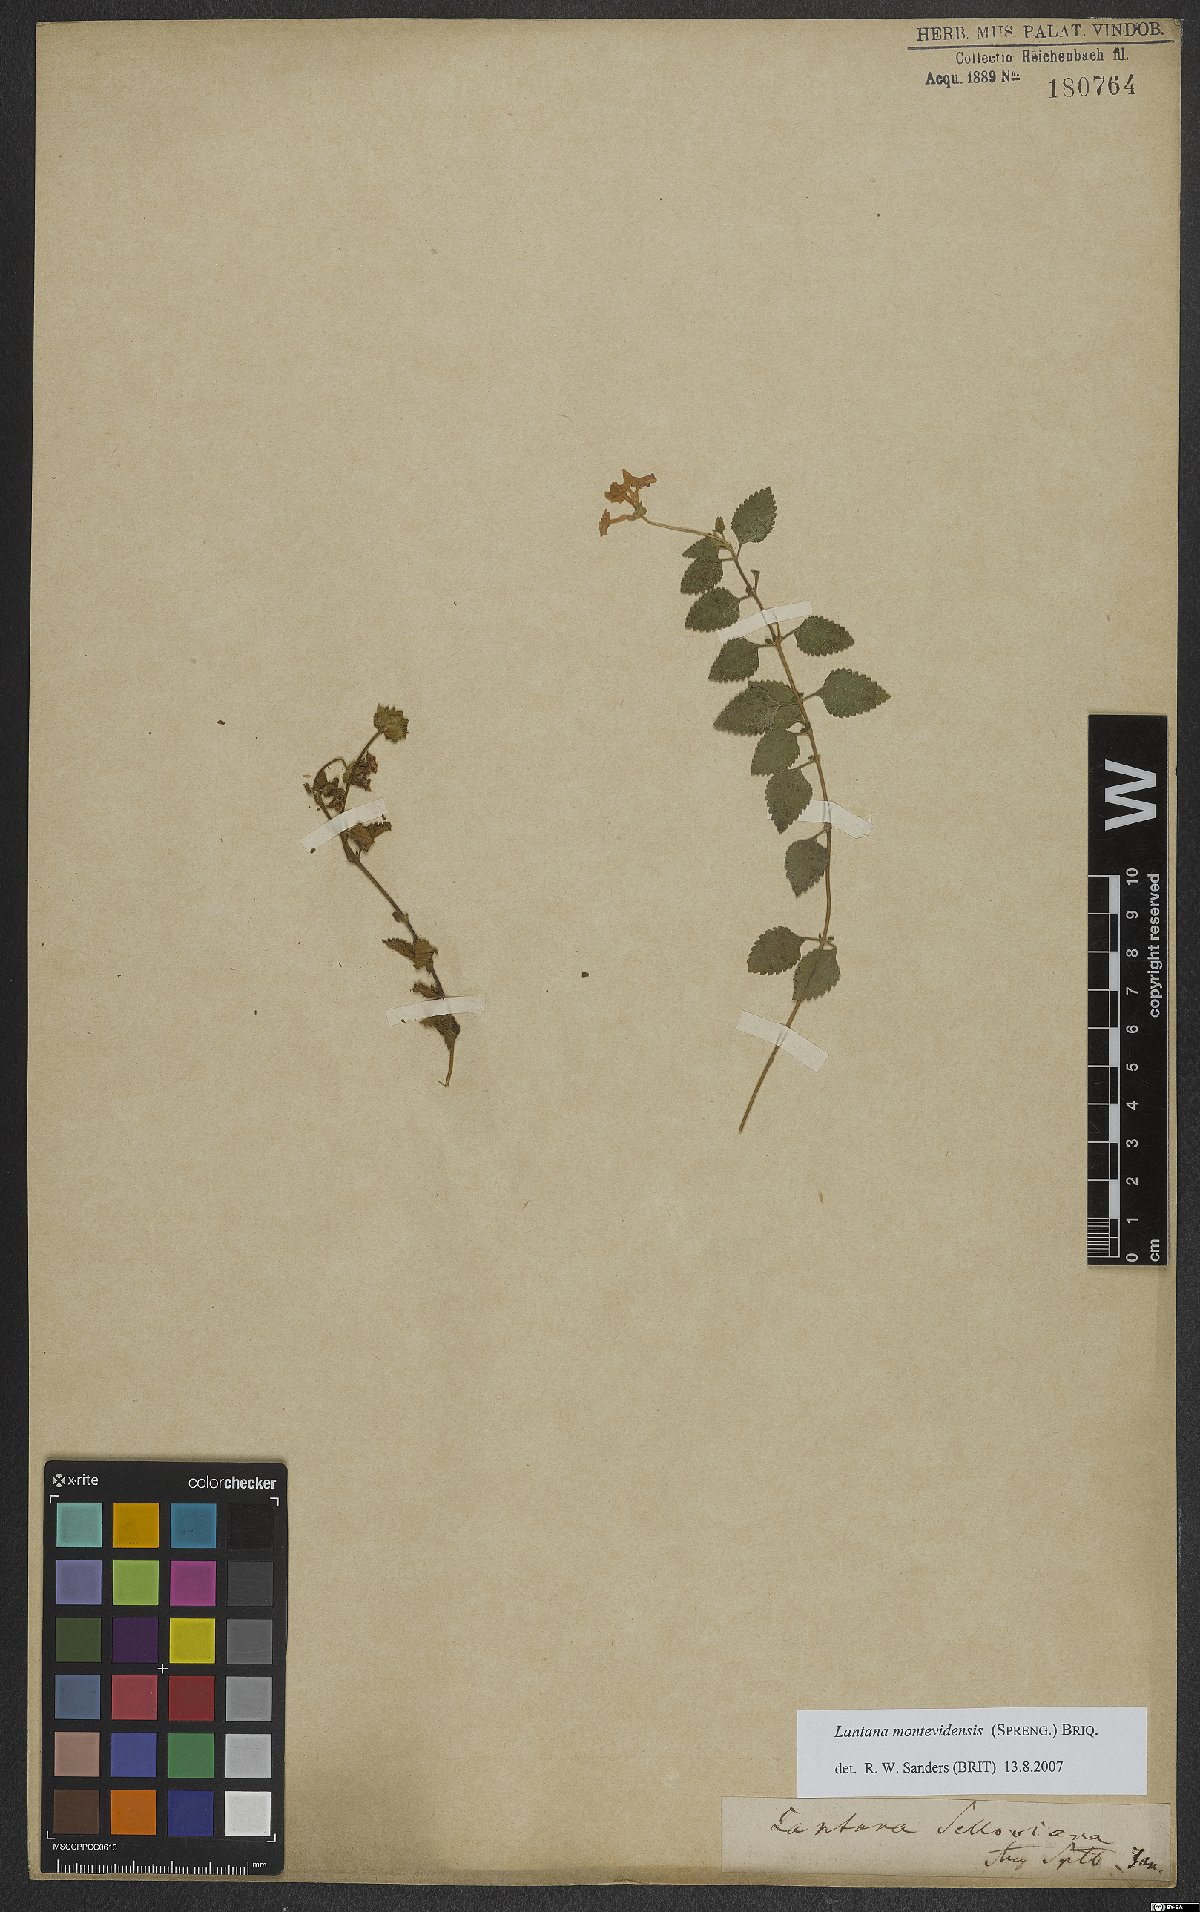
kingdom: Plantae
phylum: Tracheophyta
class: Magnoliopsida
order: Lamiales
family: Verbenaceae
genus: Lantana
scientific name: Lantana montevidensis
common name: Trailing shrubverbena
